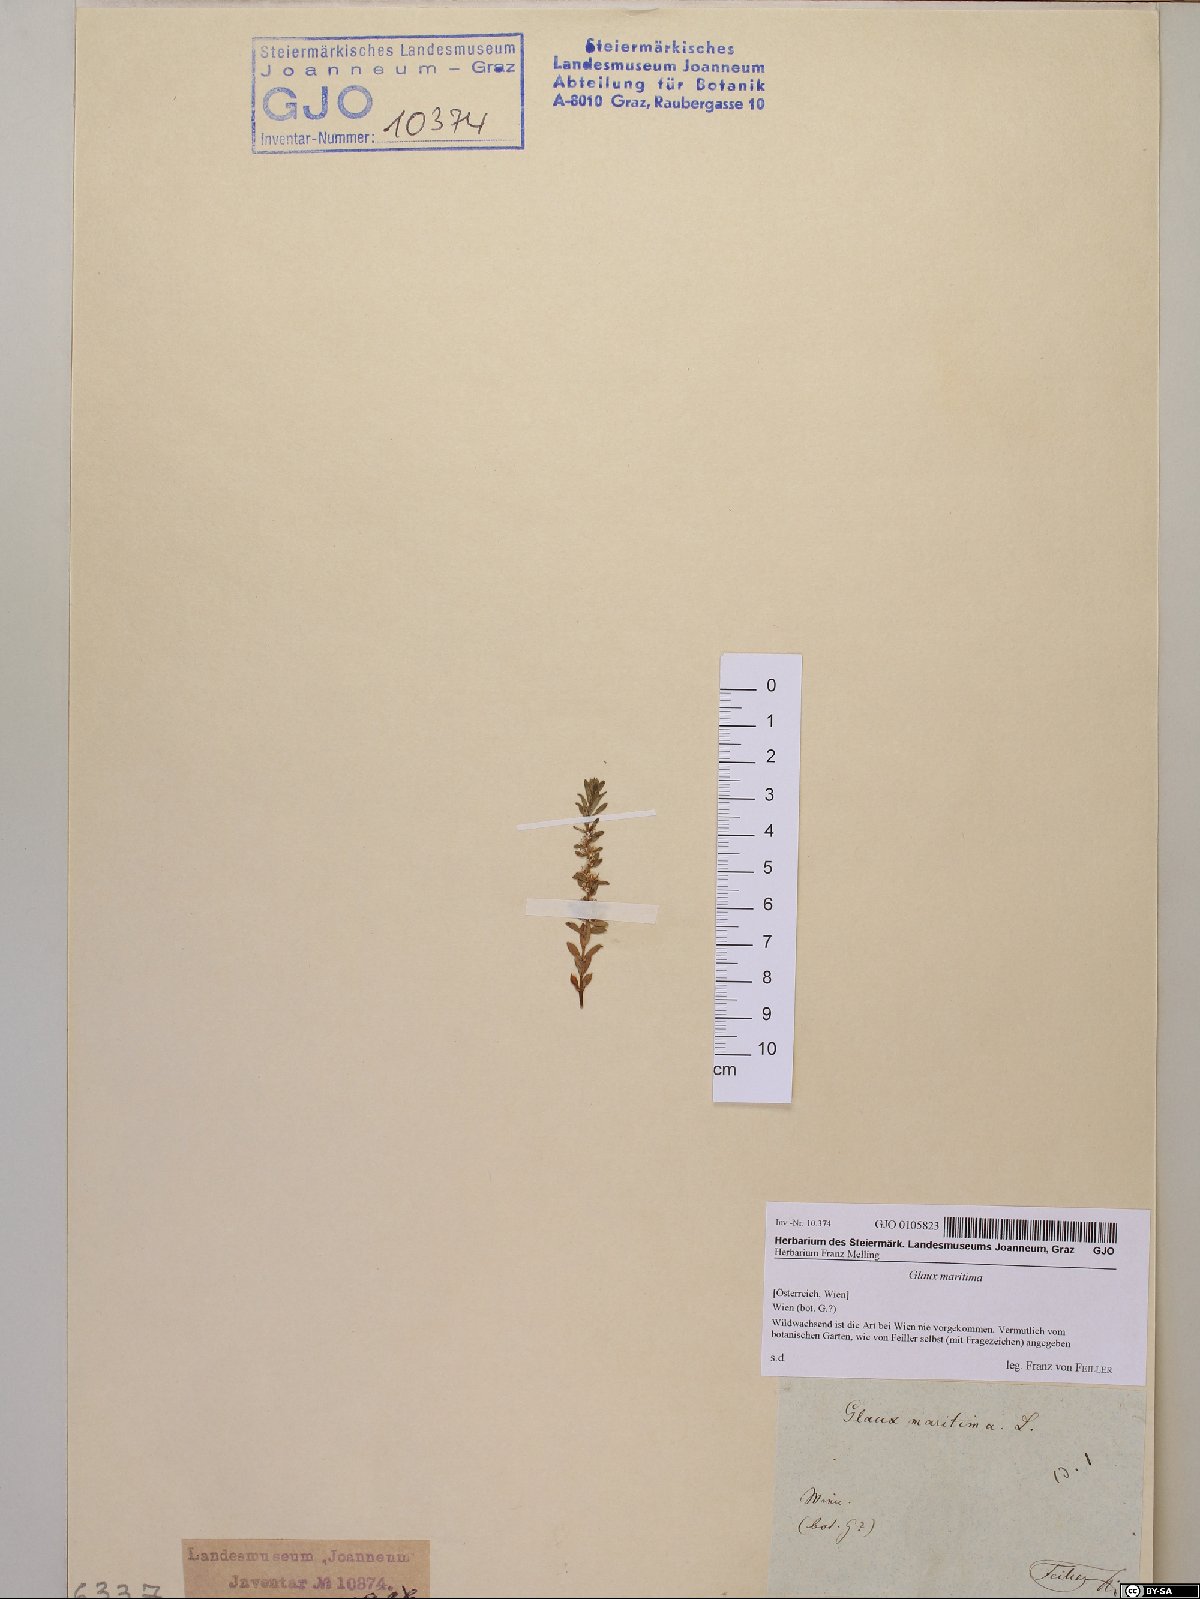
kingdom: Plantae
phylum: Tracheophyta
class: Magnoliopsida
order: Ericales
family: Primulaceae
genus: Lysimachia
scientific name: Lysimachia maritima
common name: Sea milkwort
